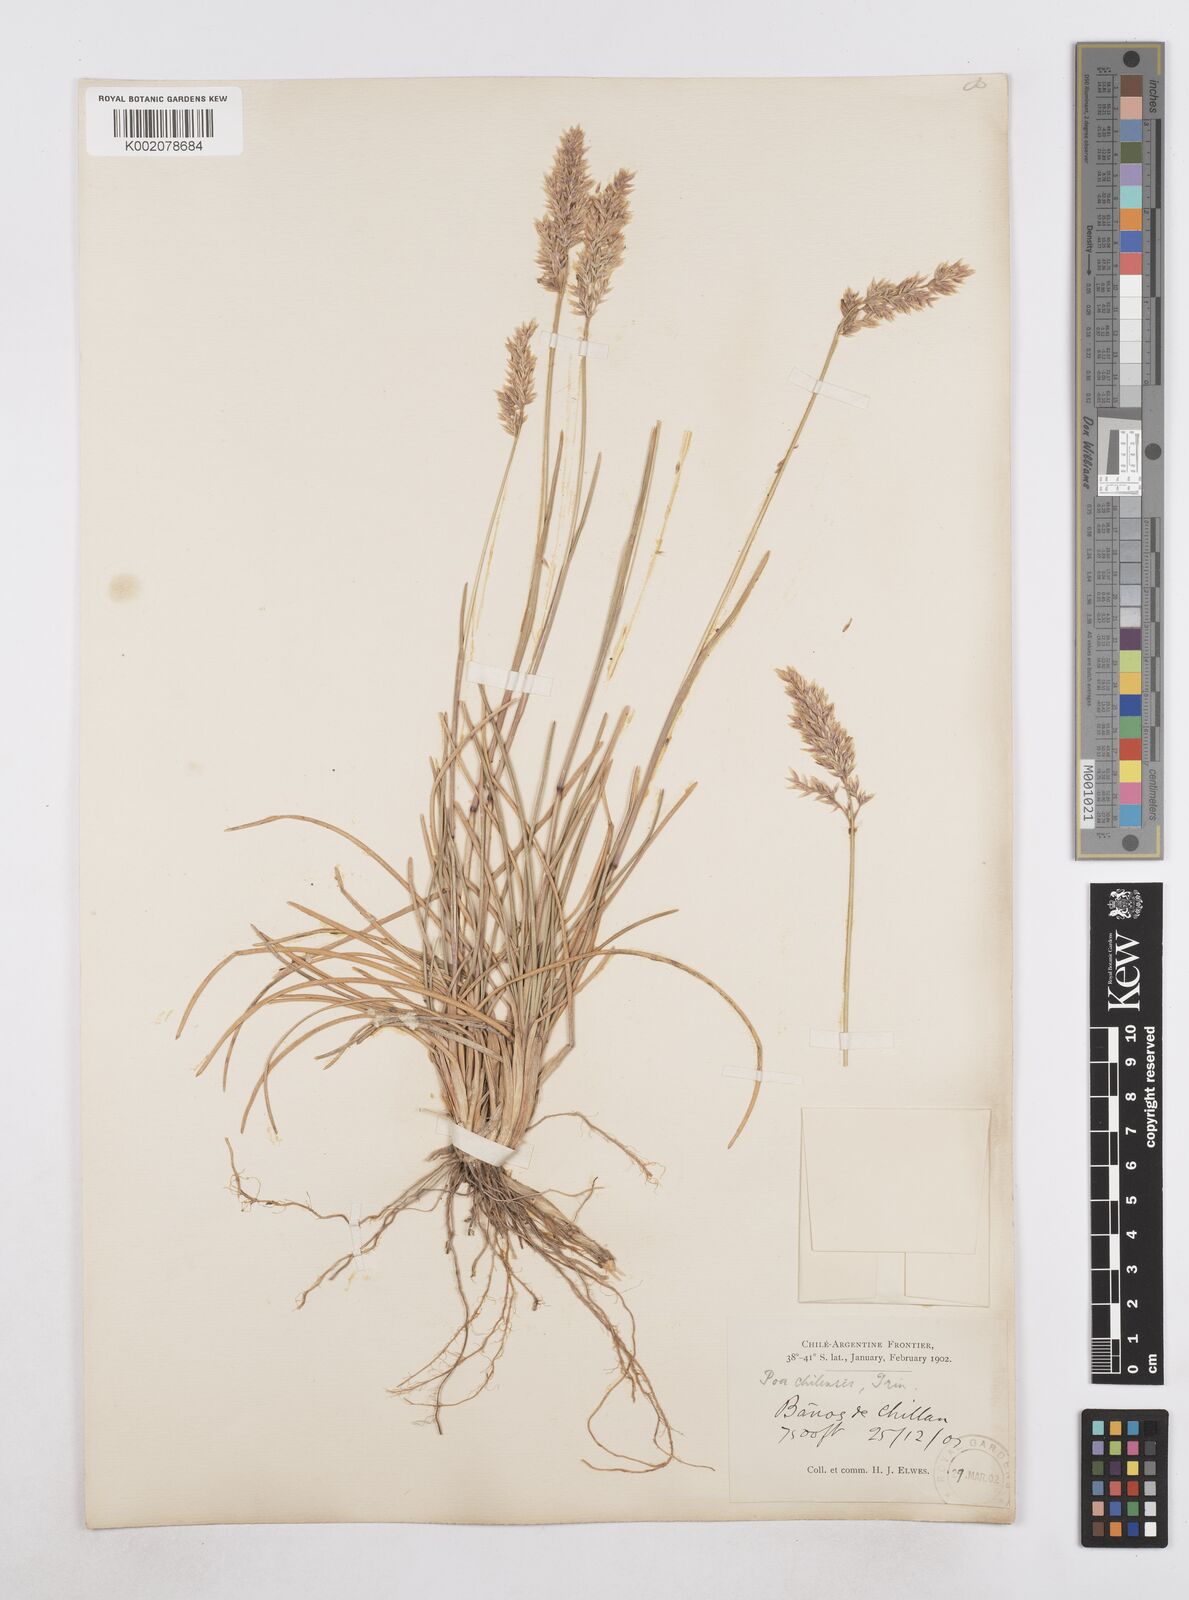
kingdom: Plantae
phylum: Tracheophyta
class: Liliopsida
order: Poales
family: Poaceae
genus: Arctopoa
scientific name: Arctopoa tibetica
